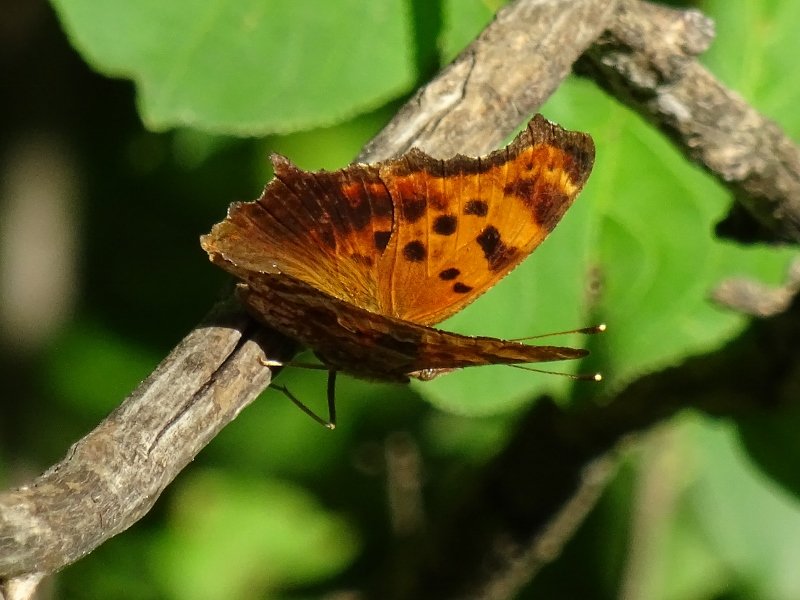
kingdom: Animalia
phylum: Arthropoda
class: Insecta
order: Lepidoptera
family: Nymphalidae
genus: Polygonia
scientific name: Polygonia comma
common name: Eastern Comma
